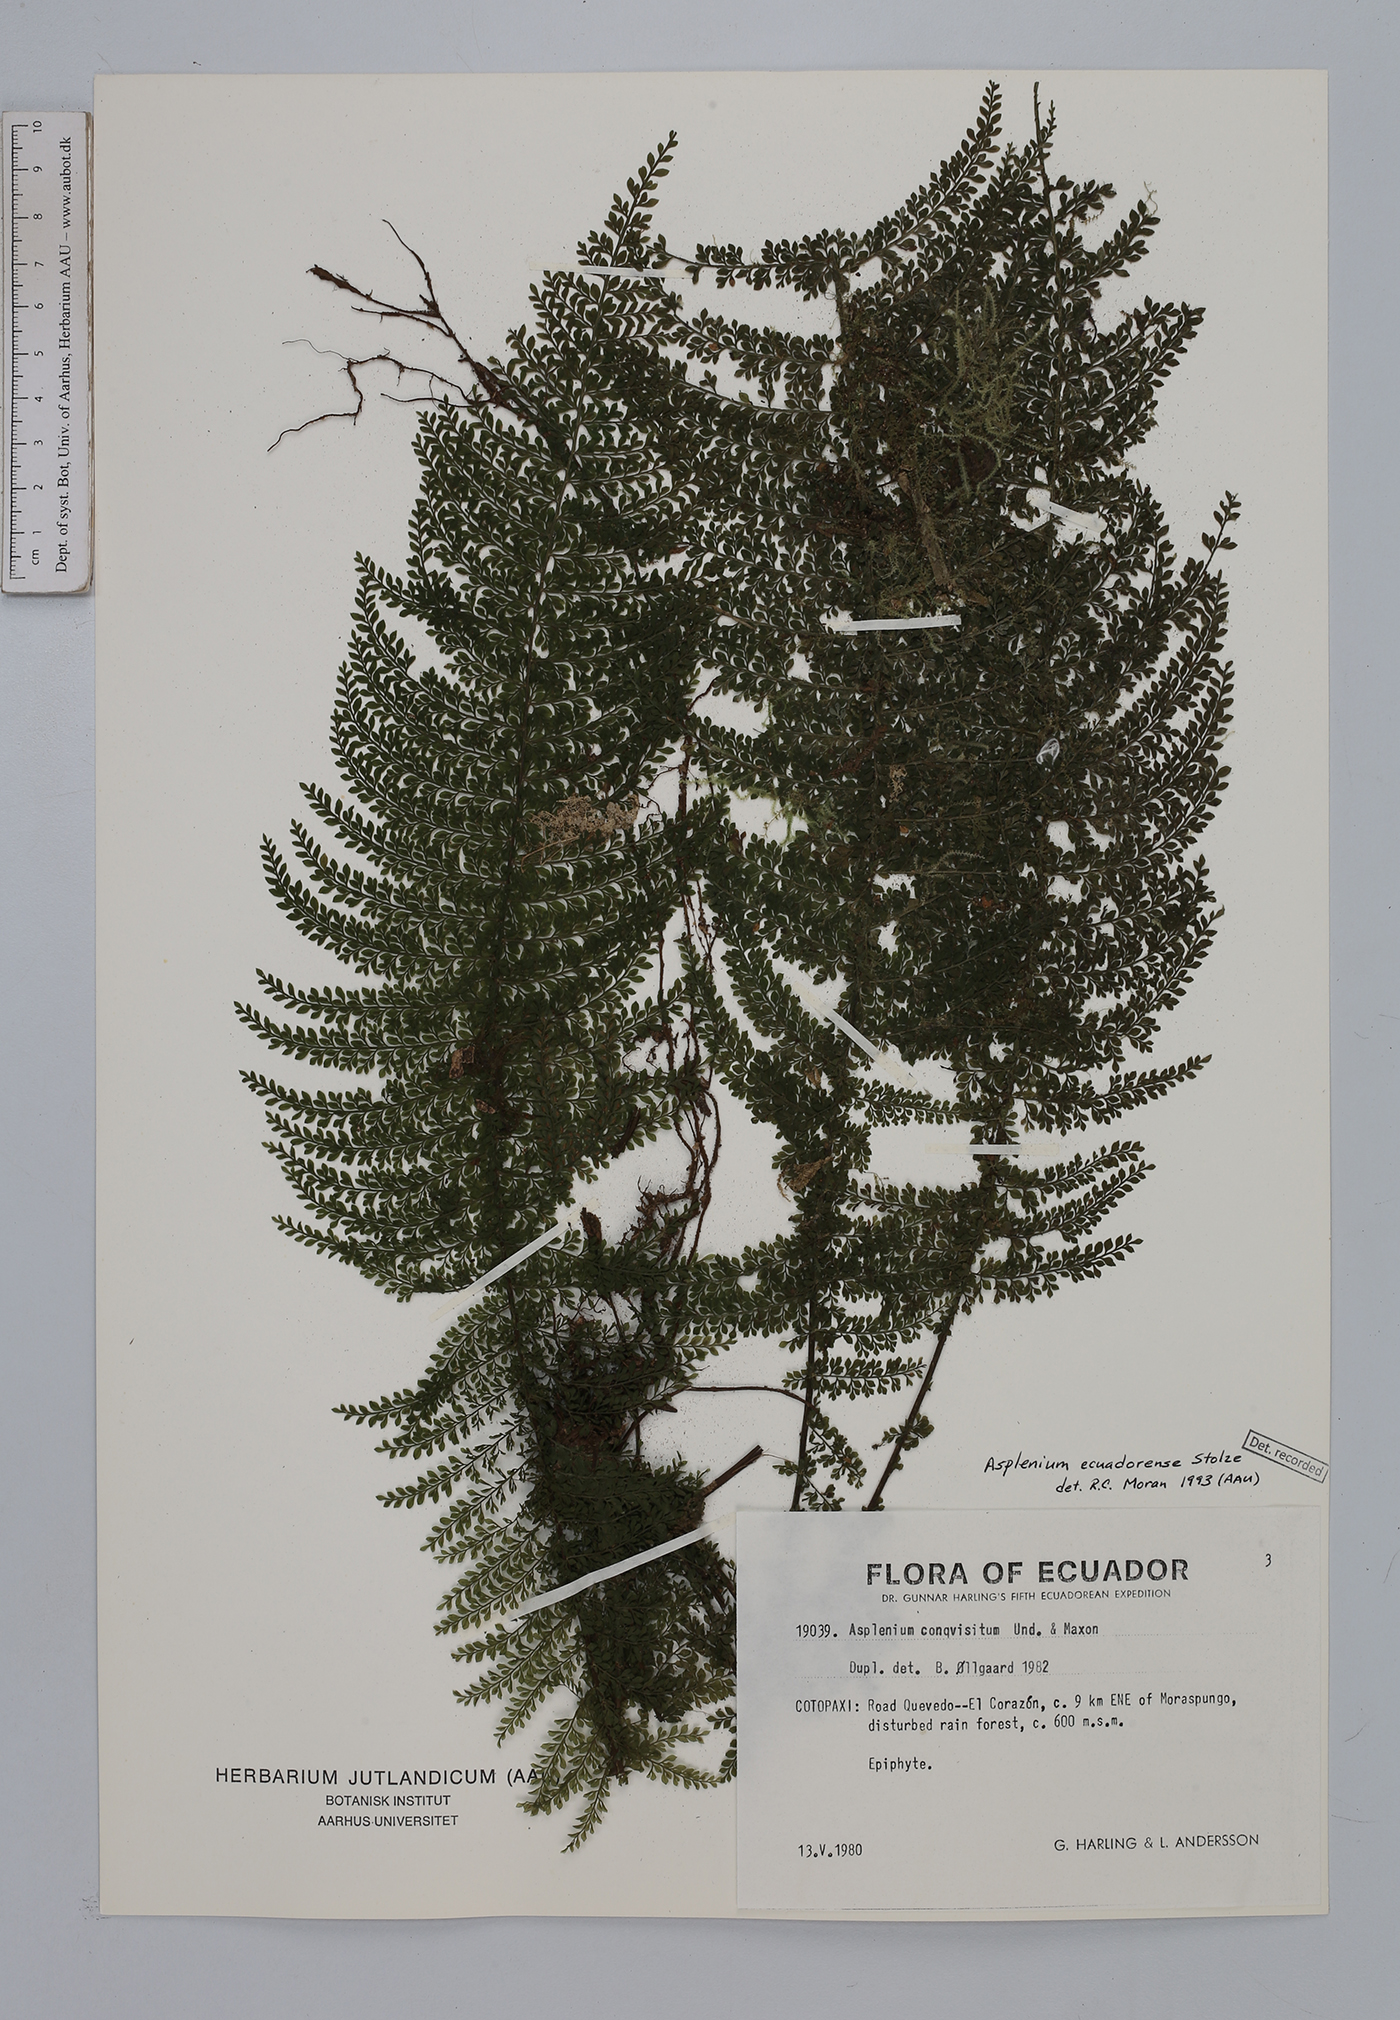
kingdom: Plantae
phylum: Tracheophyta
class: Polypodiopsida
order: Polypodiales
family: Aspleniaceae
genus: Asplenium
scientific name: Asplenium ecuadorense
